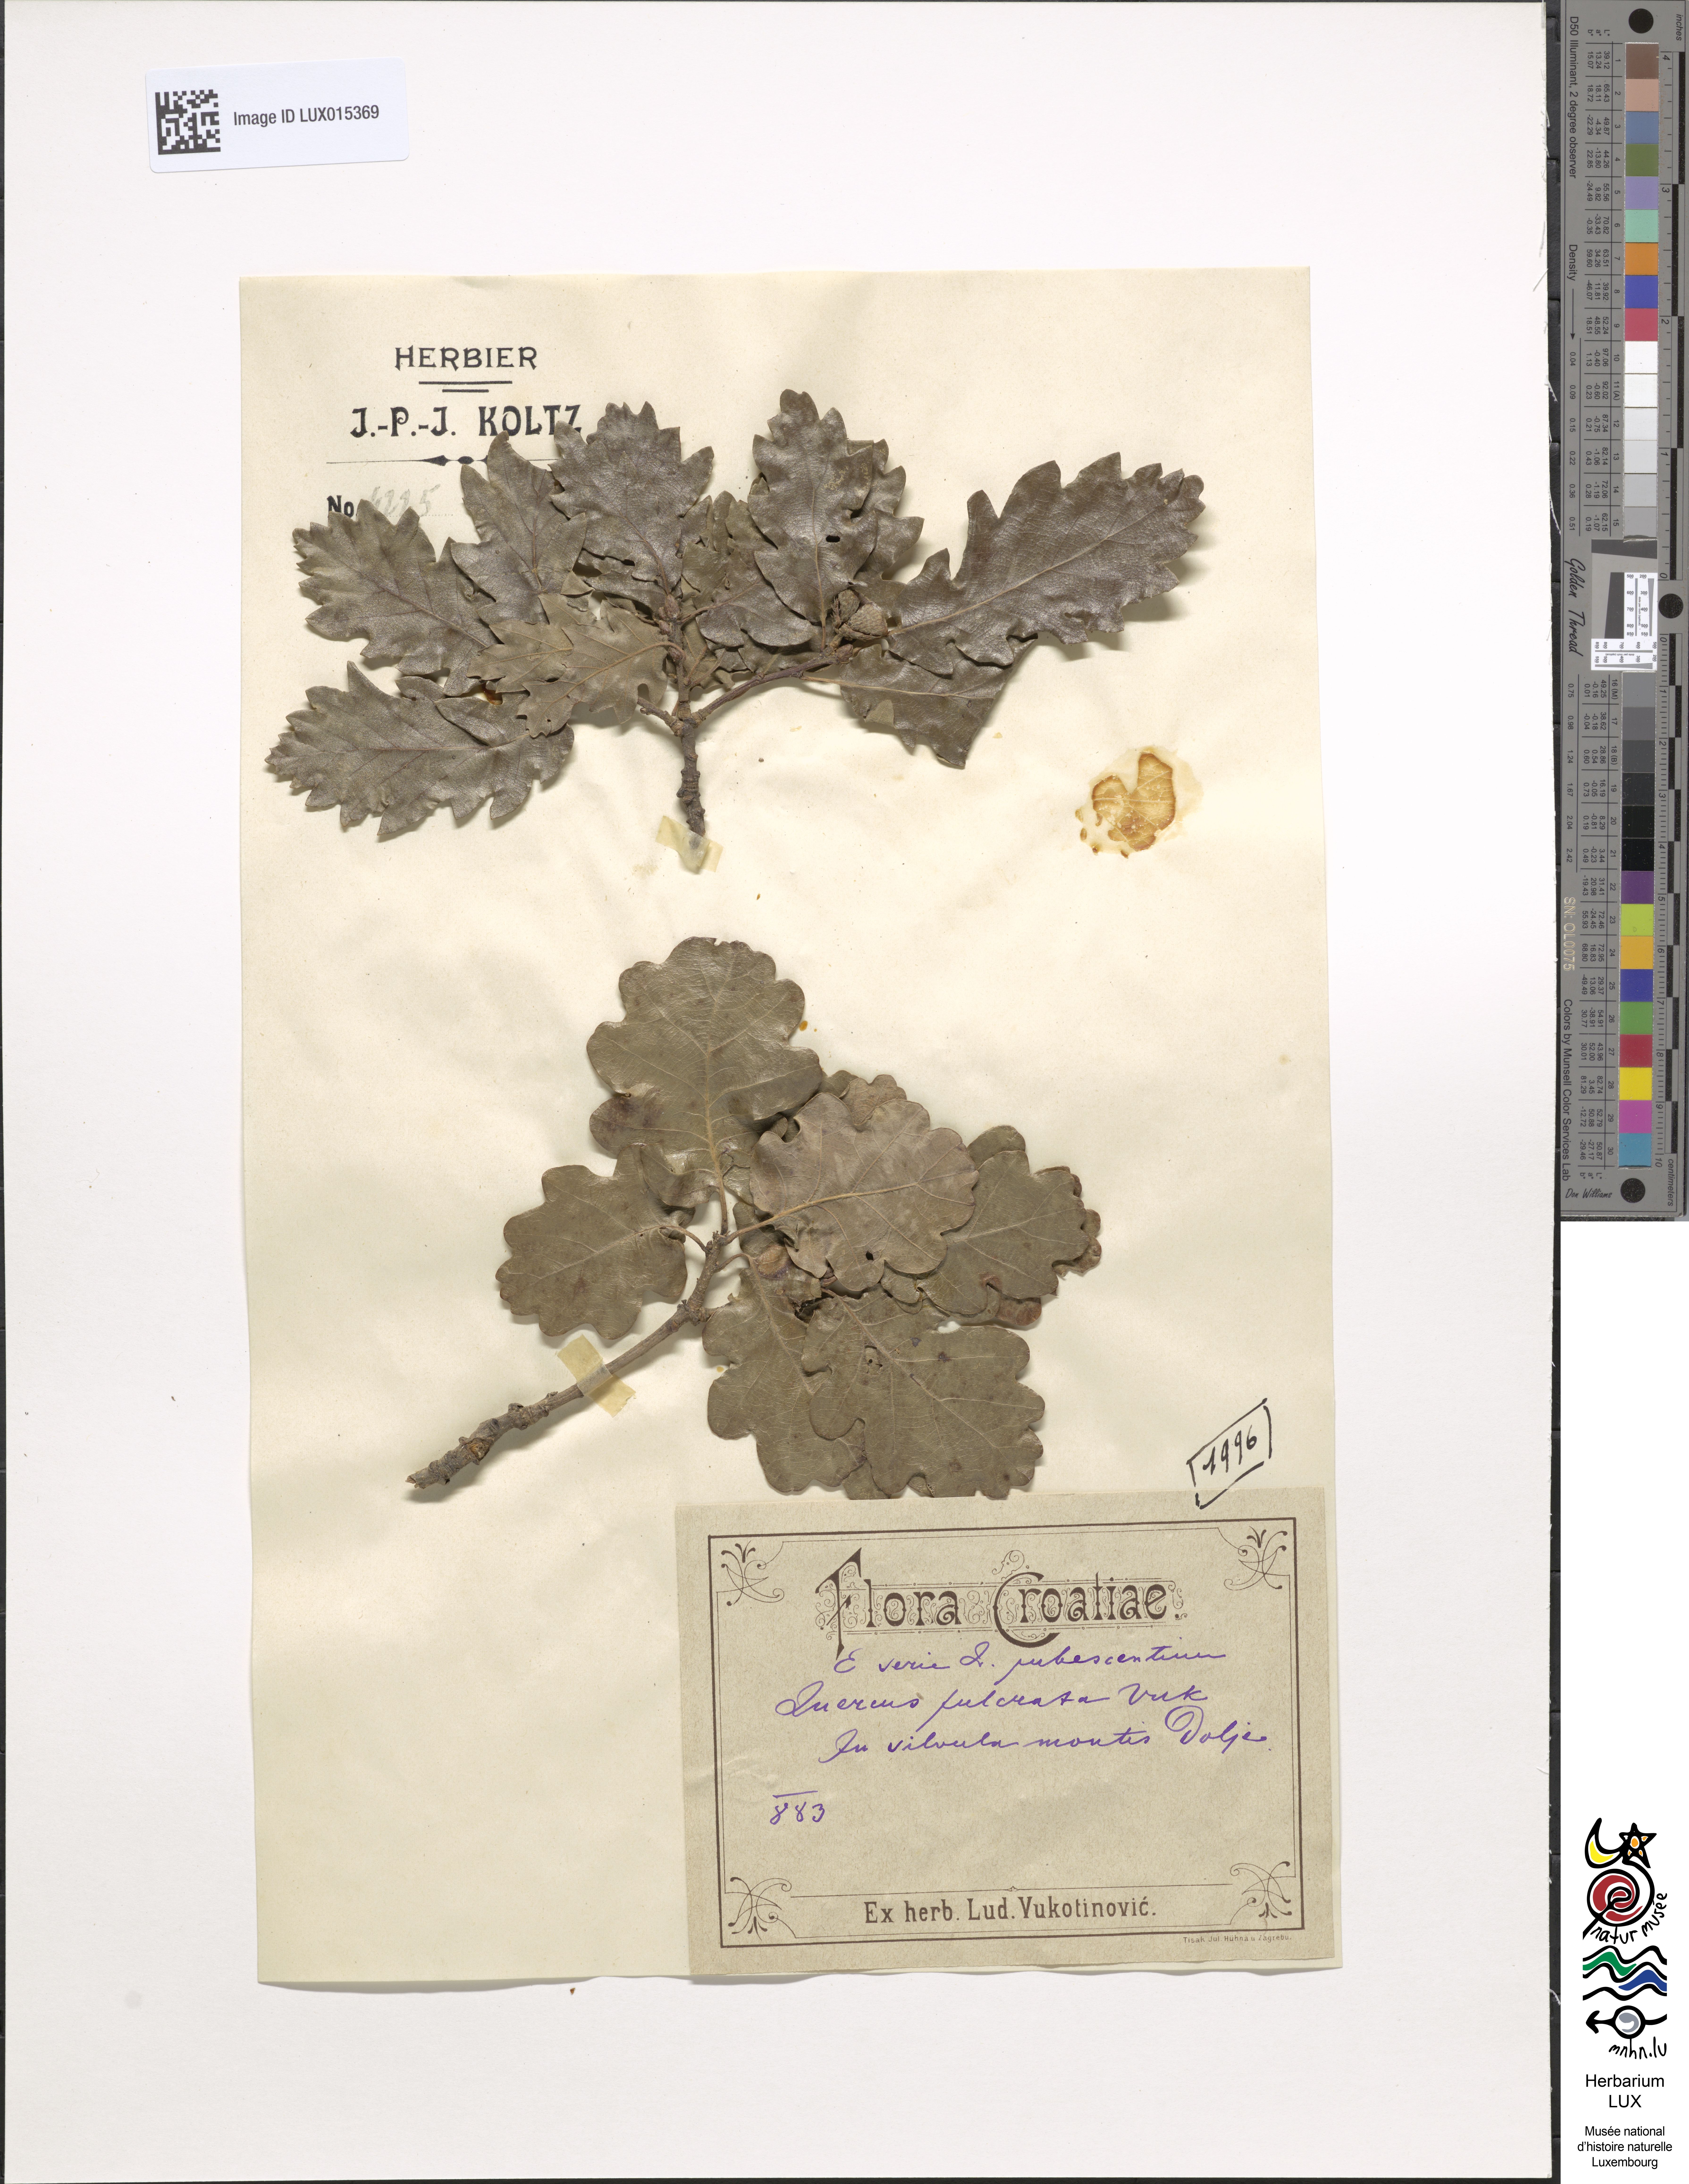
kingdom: Plantae
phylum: Tracheophyta
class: Magnoliopsida
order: Fagales
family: Fagaceae
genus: Quercus
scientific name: Quercus pubescens
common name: Downy oak
